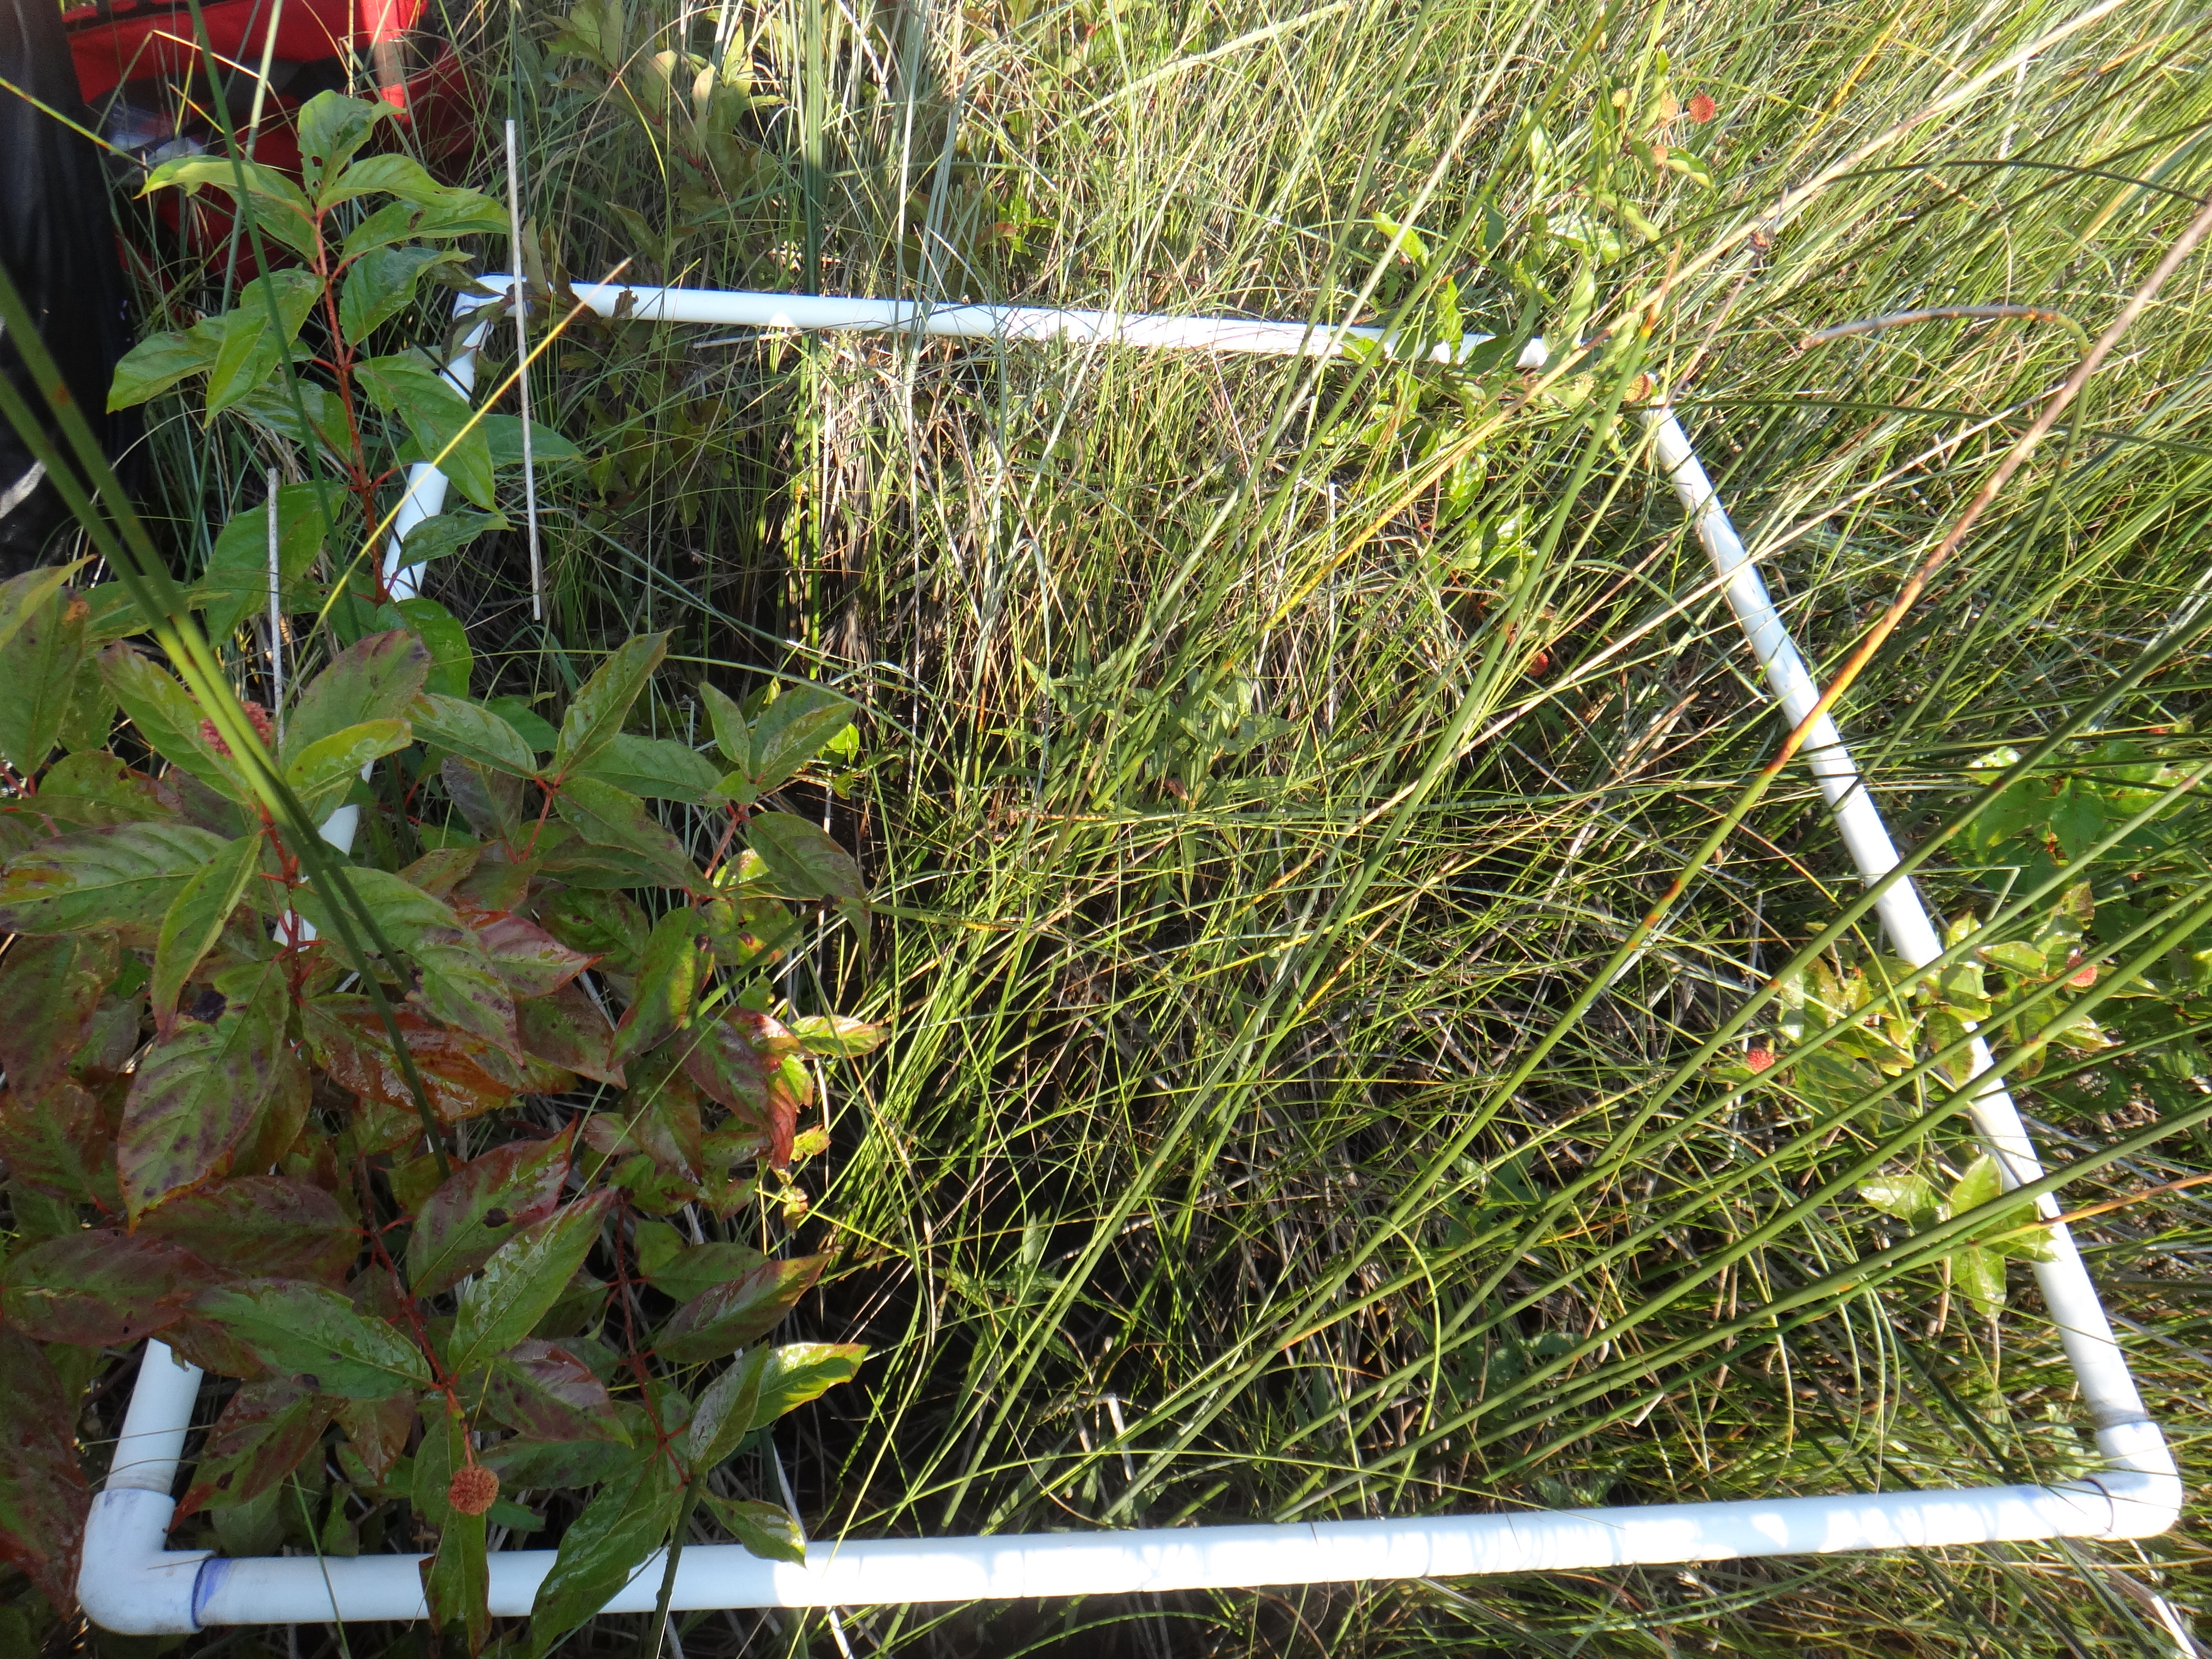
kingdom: Plantae
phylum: Tracheophyta
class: Magnoliopsida
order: Ericales
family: Primulaceae
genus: Lysimachia
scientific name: Lysimachia thyrsiflora
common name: Tufted loosestrife
